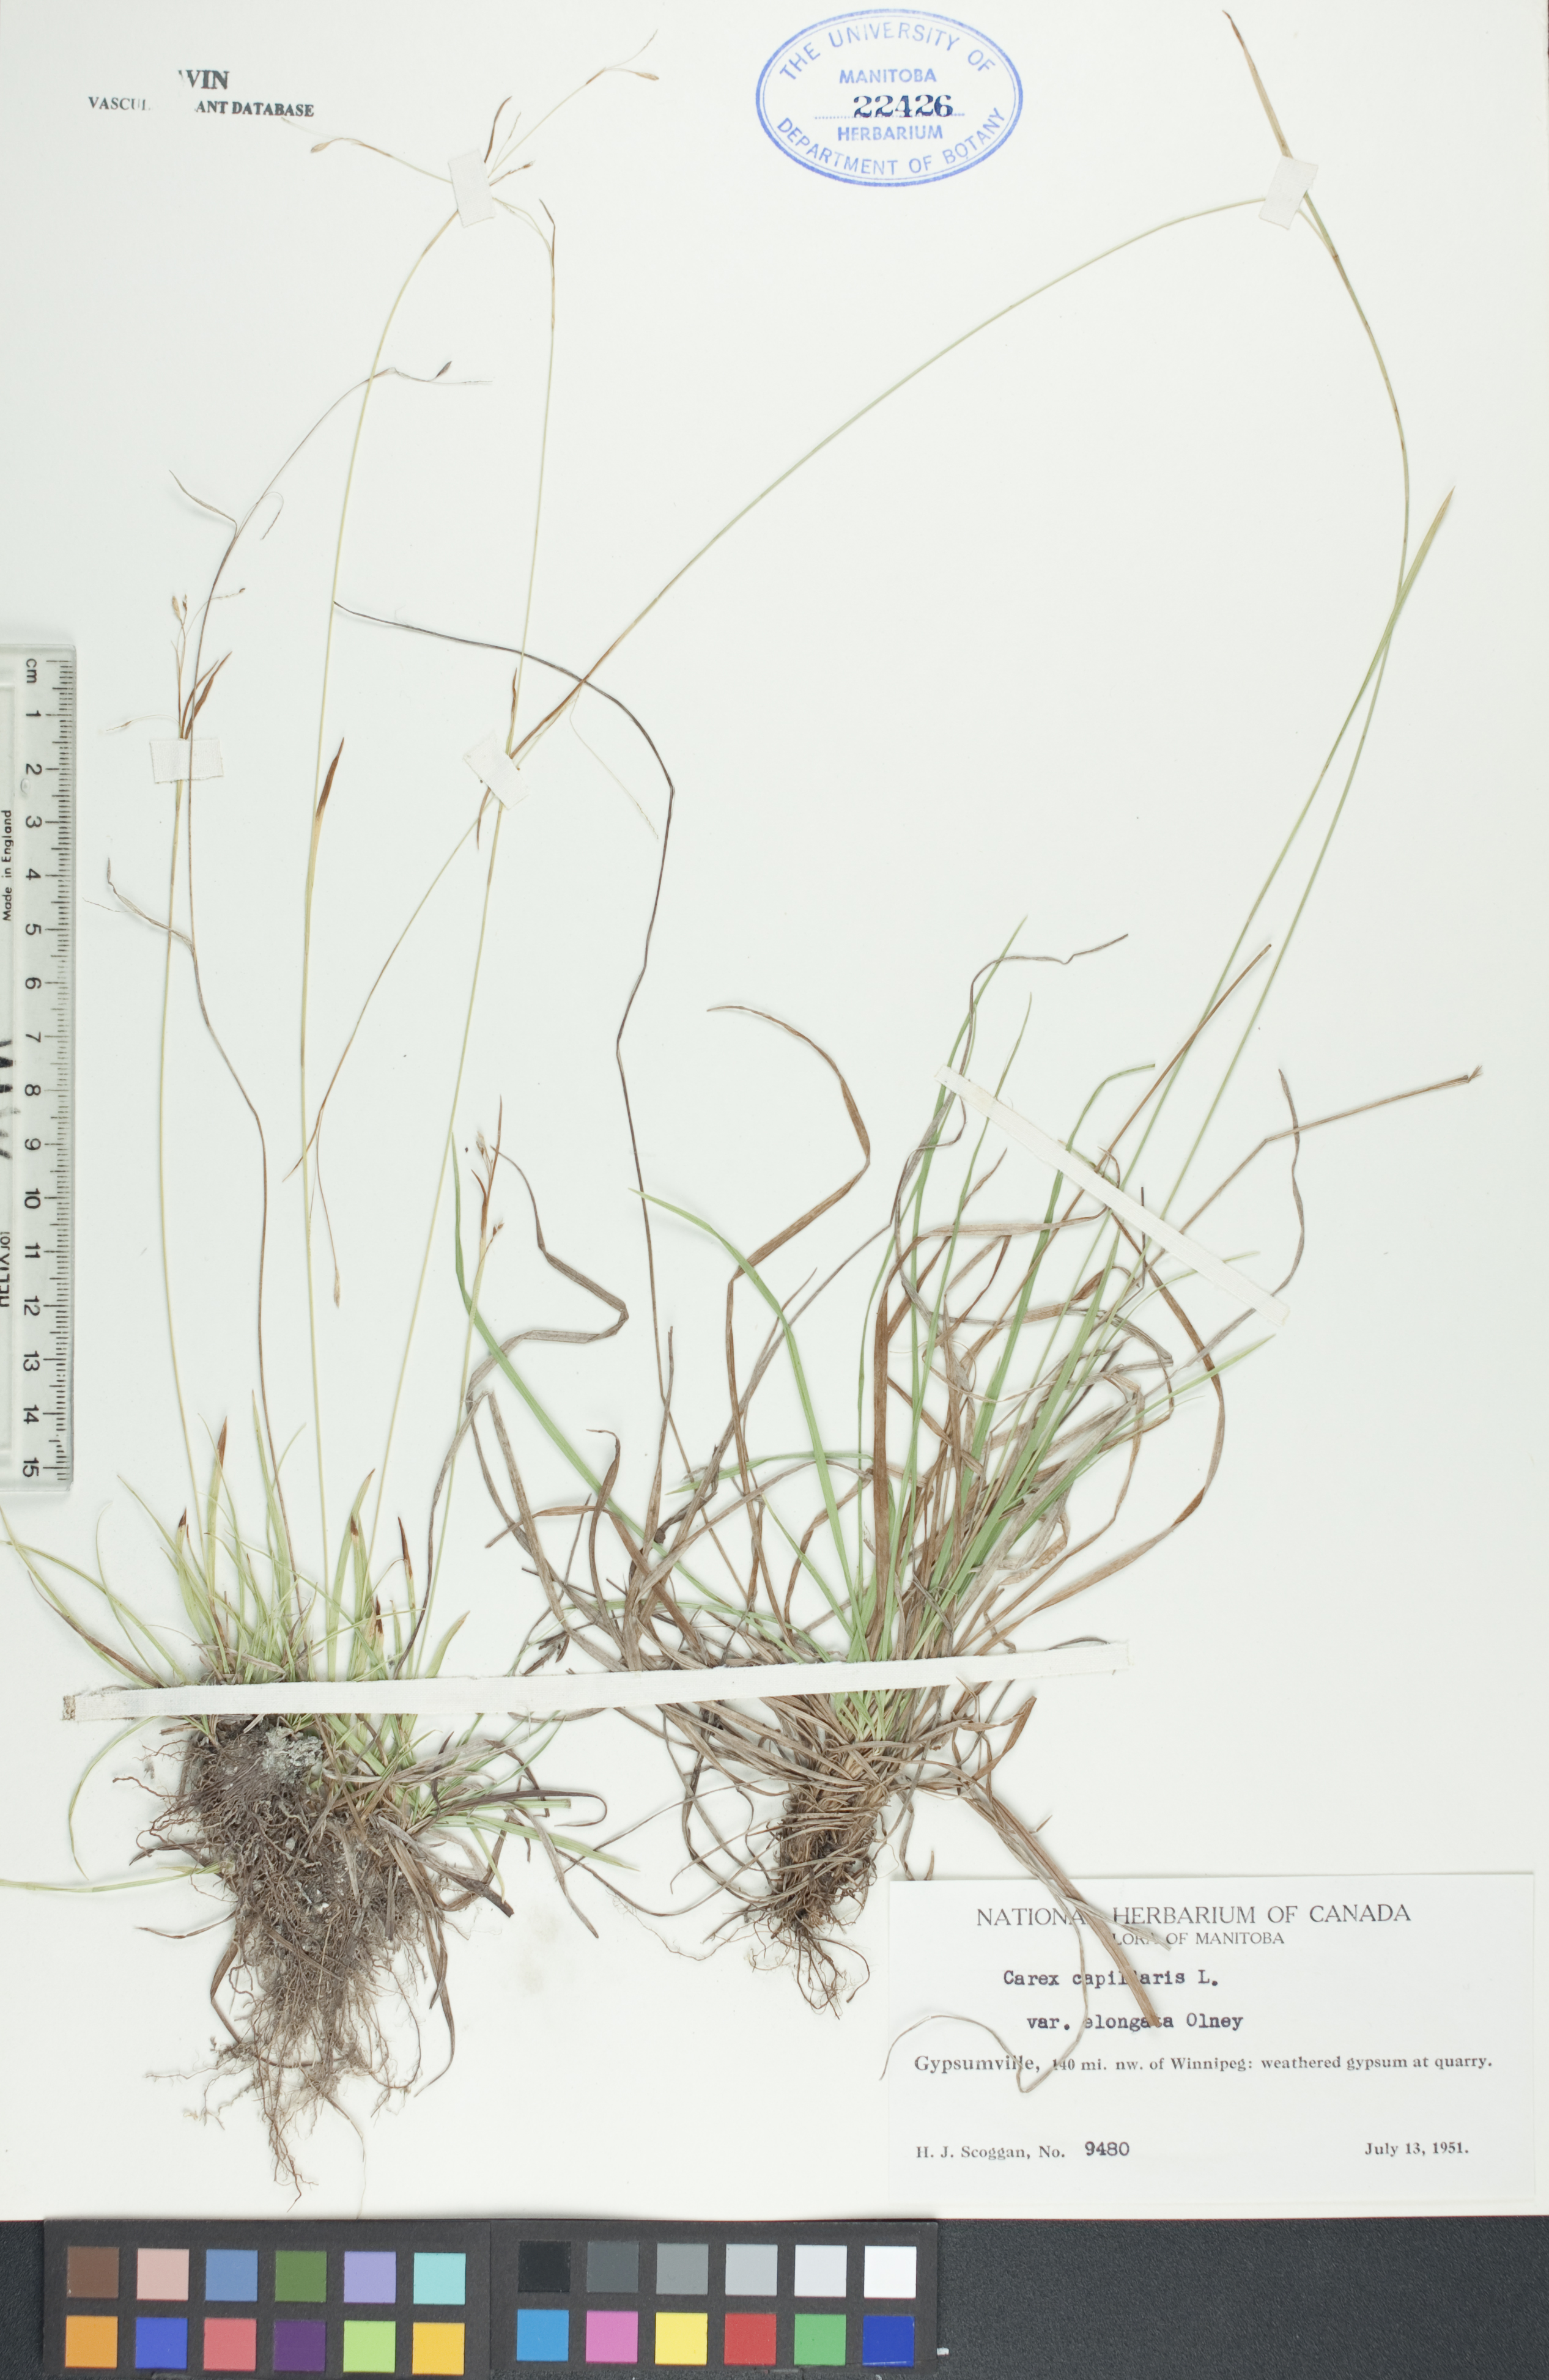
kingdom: Plantae
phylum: Tracheophyta
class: Liliopsida
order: Poales
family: Cyperaceae
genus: Carex
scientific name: Carex capillaris
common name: Hair sedge
